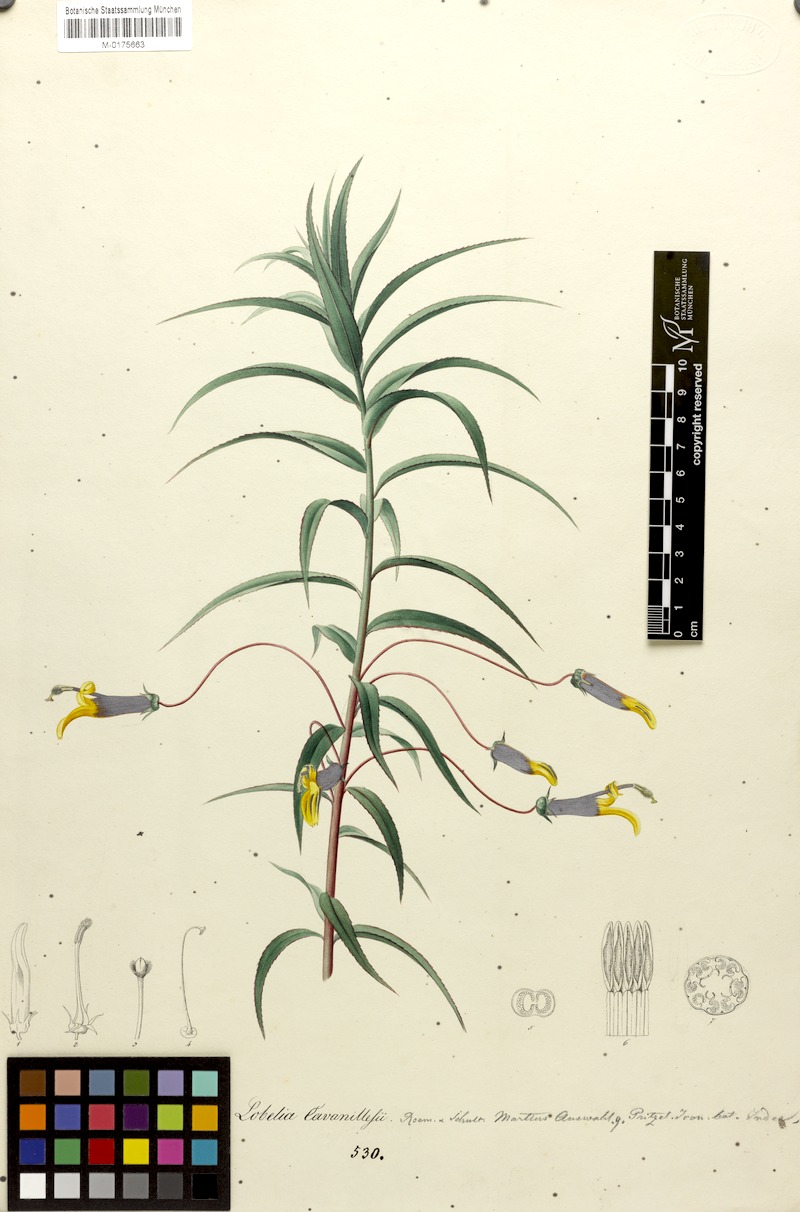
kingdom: Plantae
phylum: Tracheophyta
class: Magnoliopsida
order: Asterales
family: Campanulaceae
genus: Lobelia
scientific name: Lobelia laxiflora
